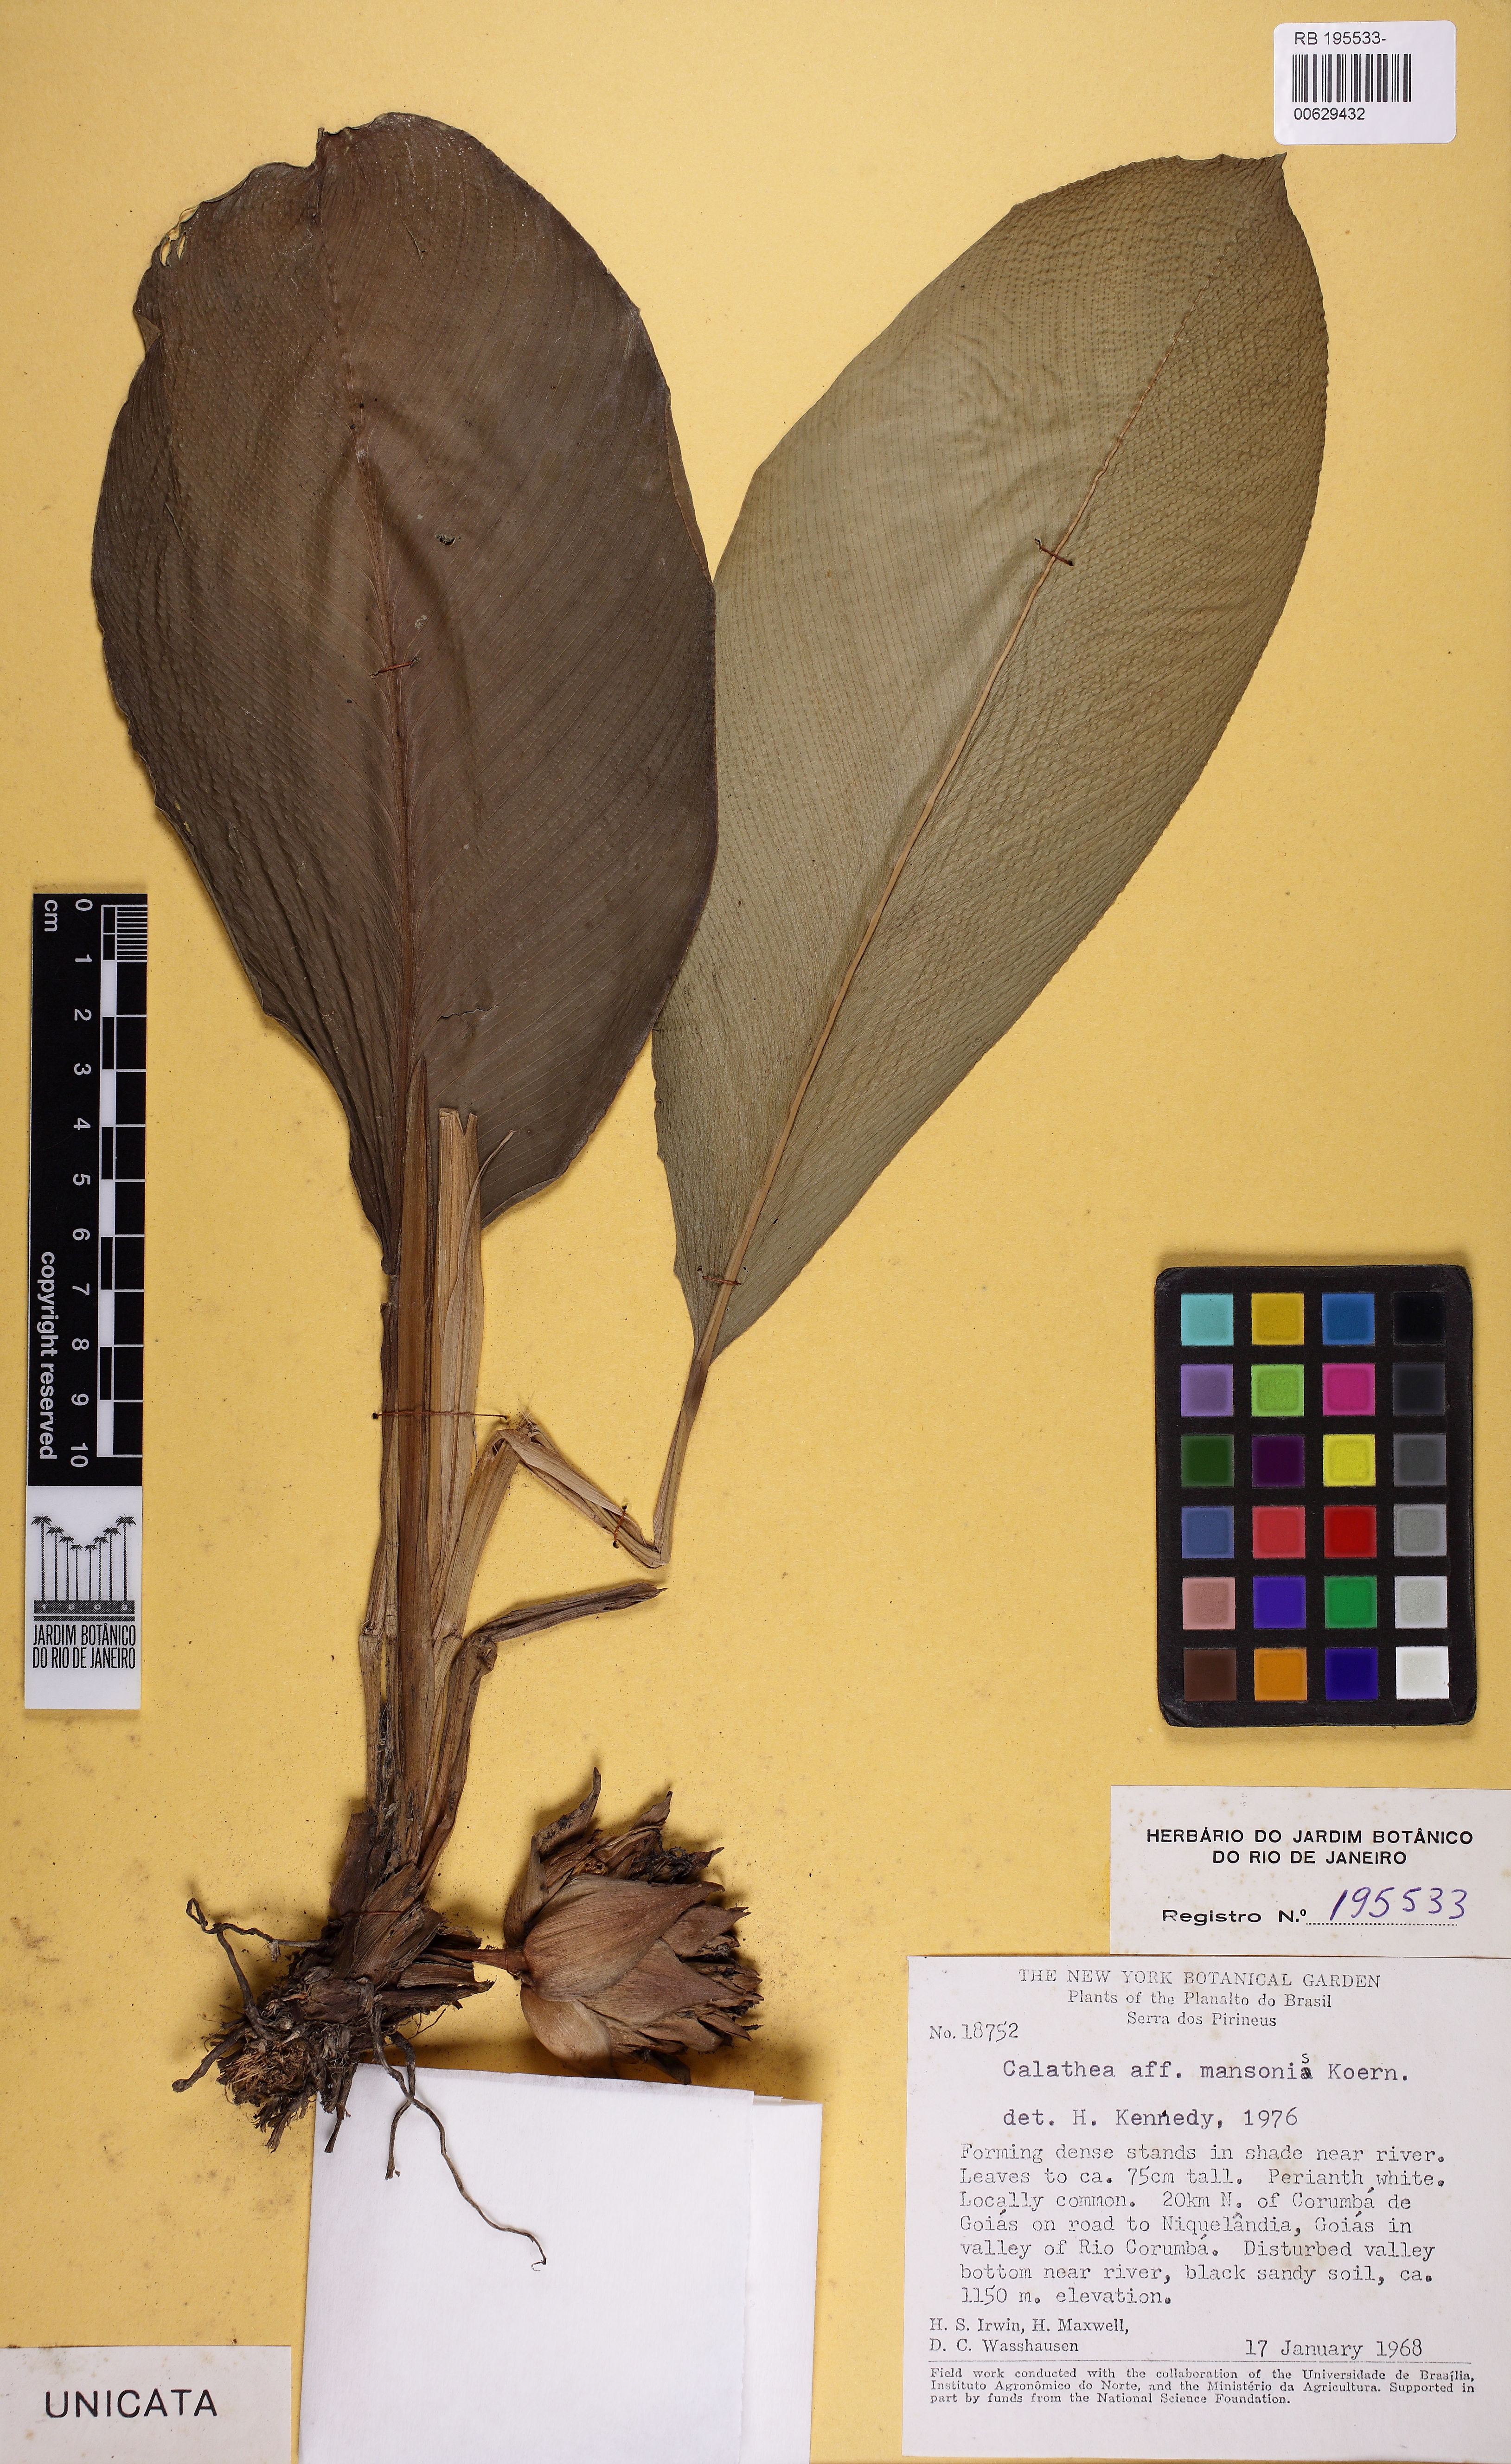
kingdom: Plantae
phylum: Tracheophyta
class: Liliopsida
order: Zingiberales
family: Marantaceae
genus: Goeppertia
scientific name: Goeppertia mansoi
